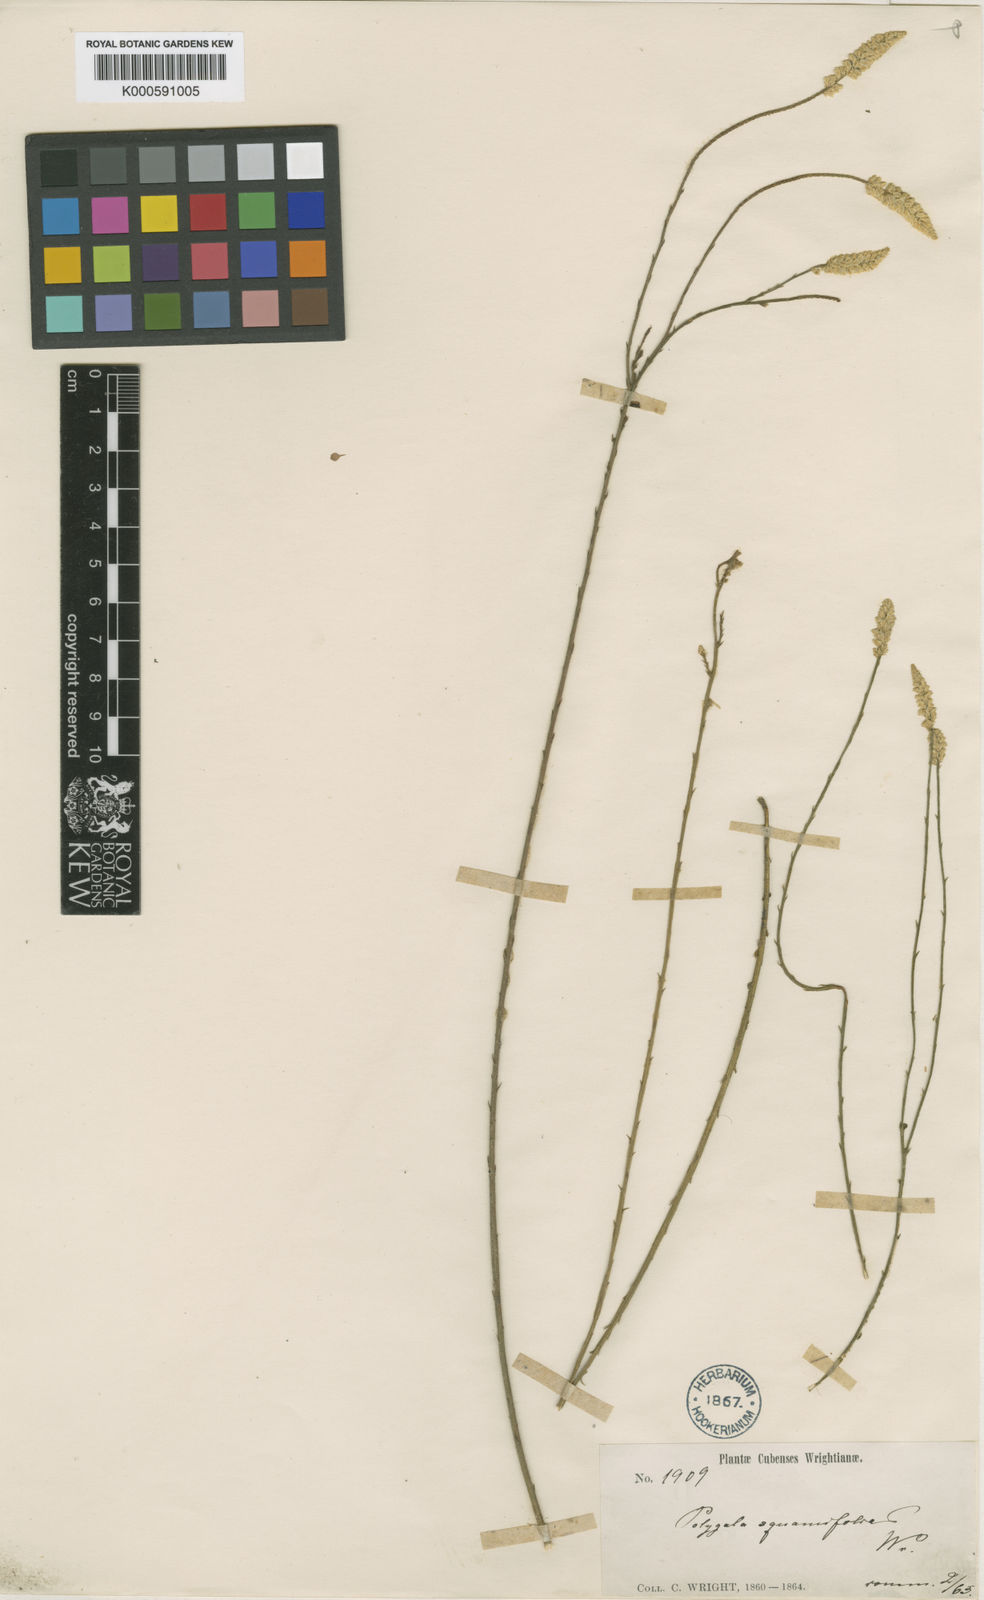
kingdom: Plantae
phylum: Tracheophyta
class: Magnoliopsida
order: Fabales
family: Polygalaceae
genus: Polygala
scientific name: Polygala squamifolia
